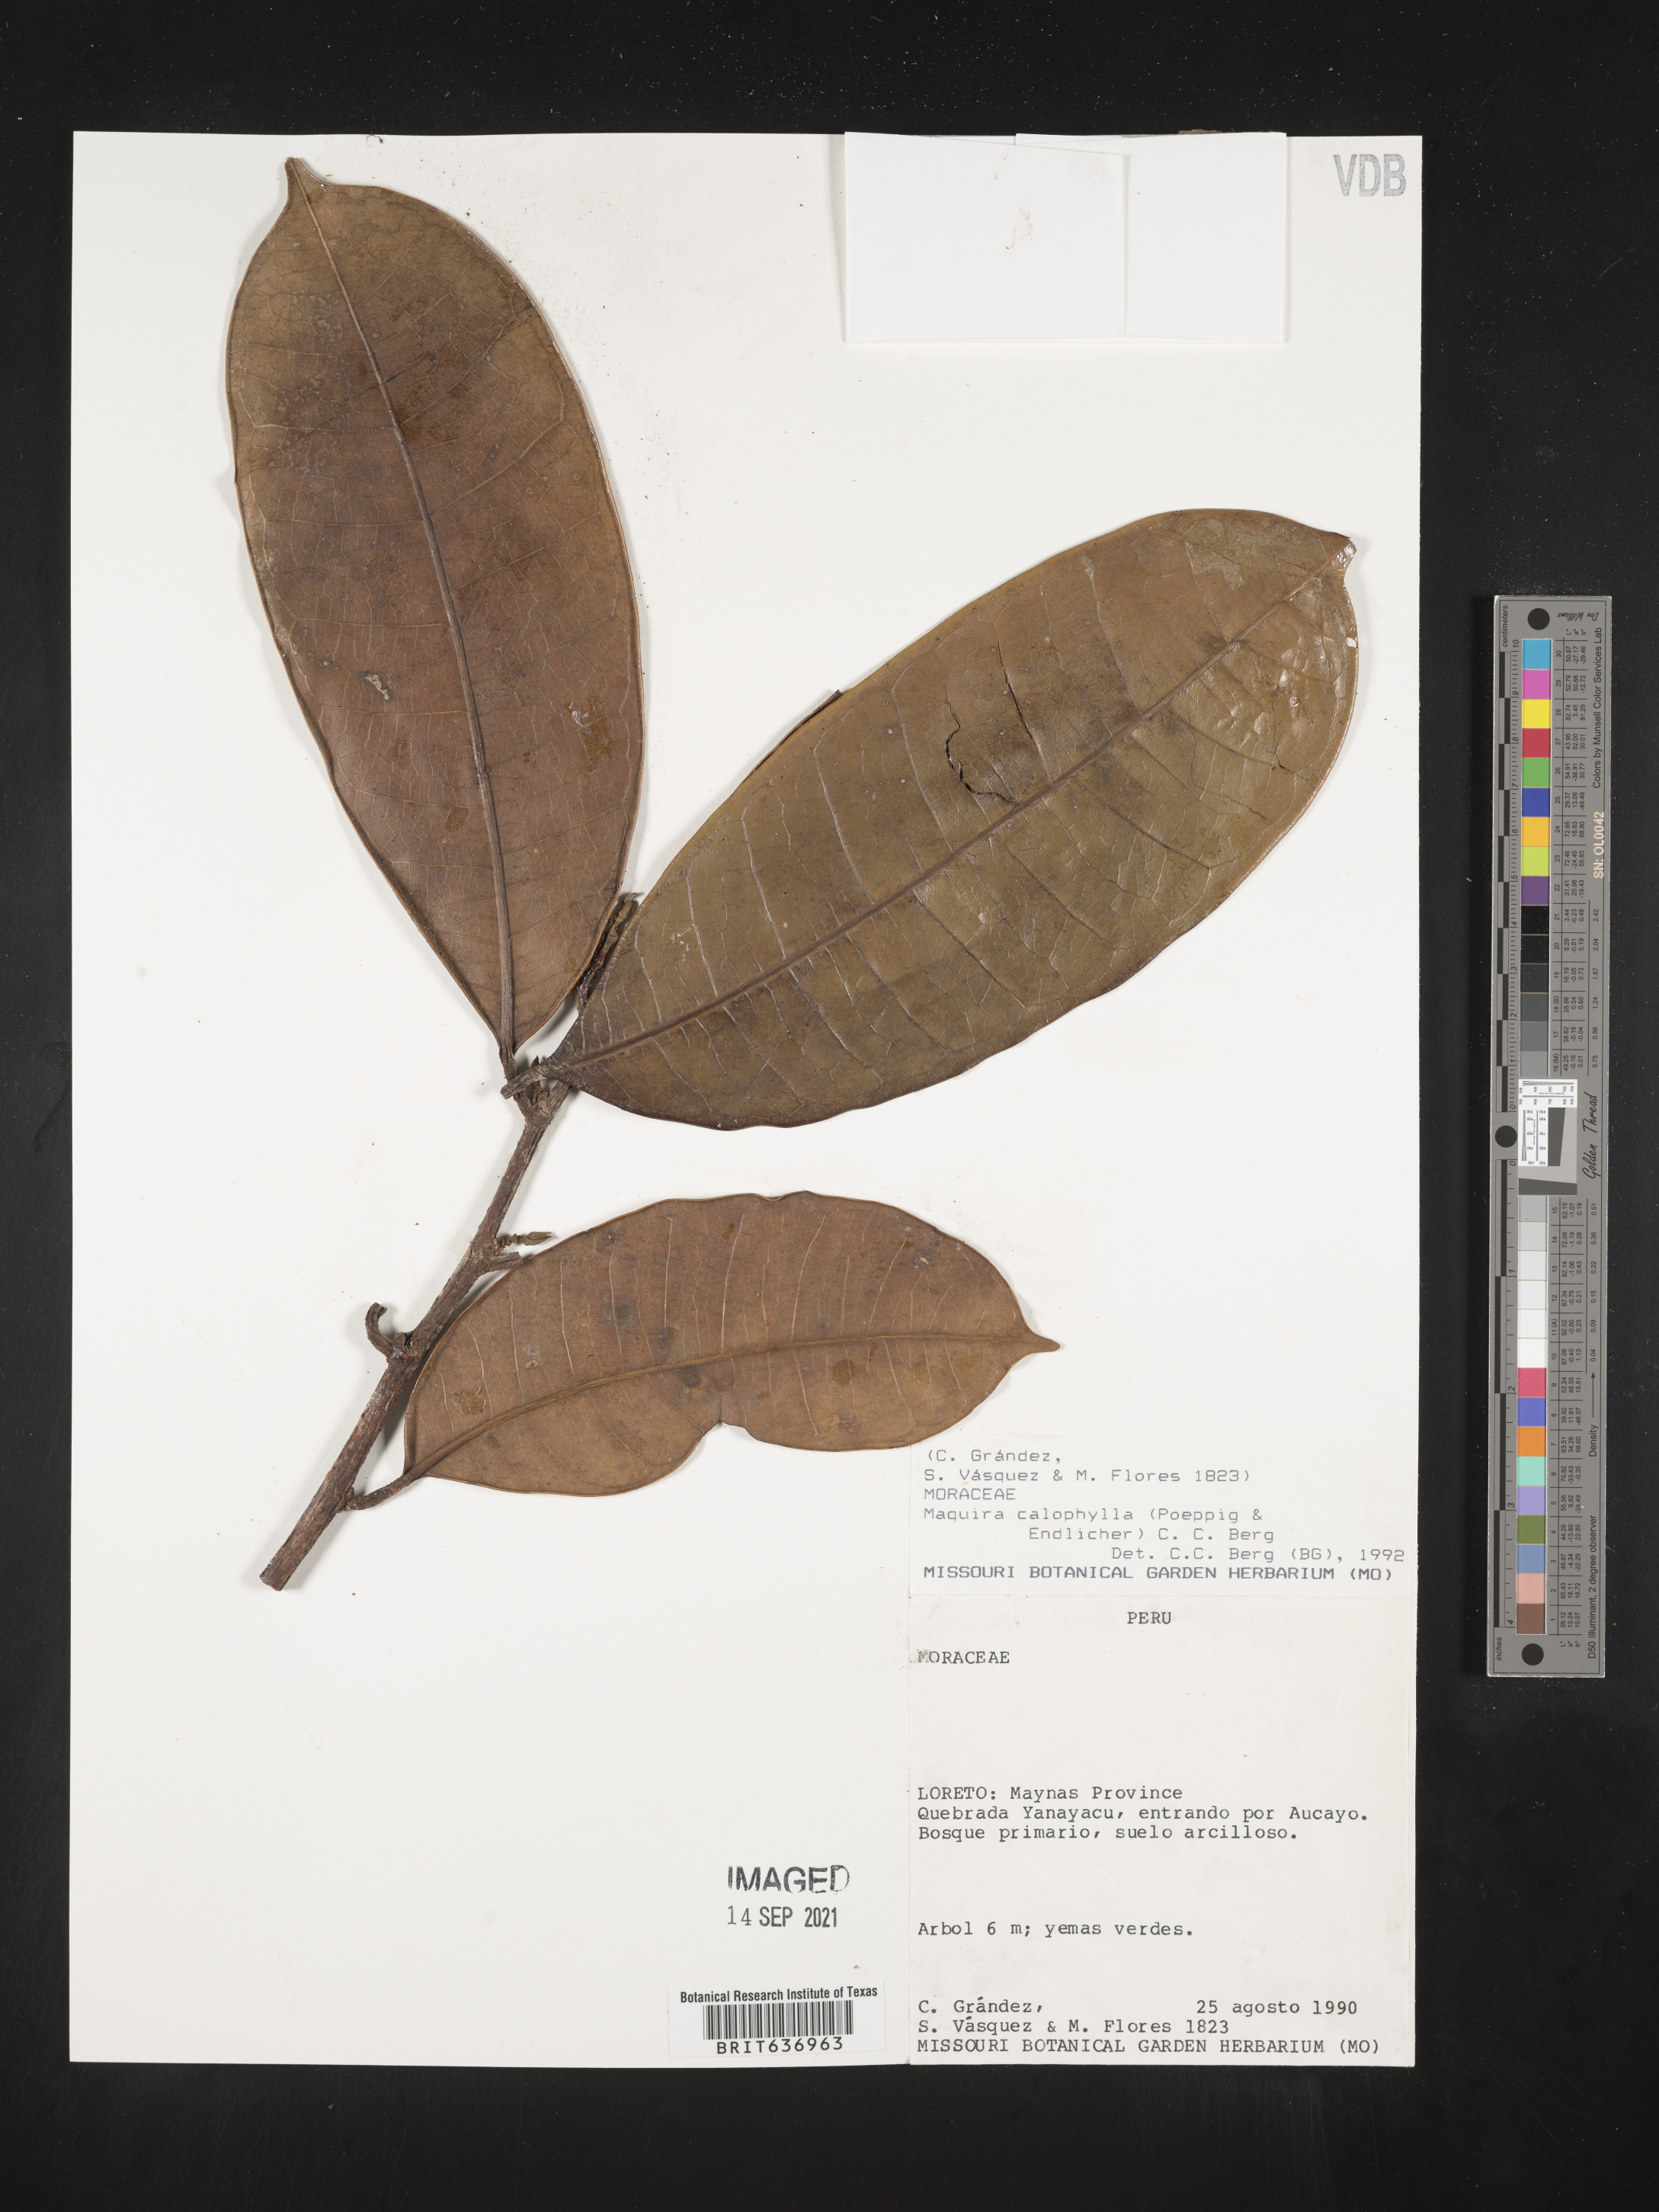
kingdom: Plantae
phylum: Tracheophyta
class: Magnoliopsida
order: Rosales
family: Moraceae
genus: Maquira
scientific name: Maquira
